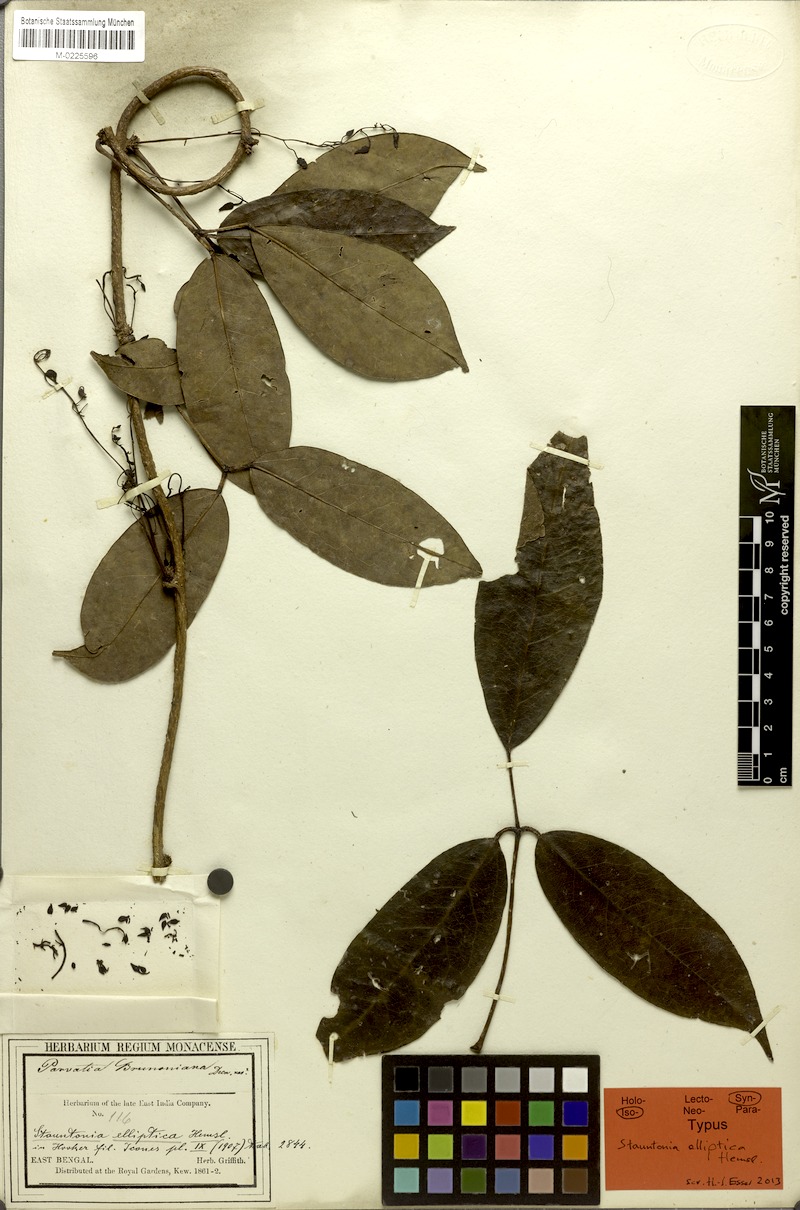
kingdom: Plantae
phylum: Tracheophyta
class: Magnoliopsida
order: Ranunculales
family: Lardizabalaceae
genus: Stauntonia
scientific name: Stauntonia elliptica
